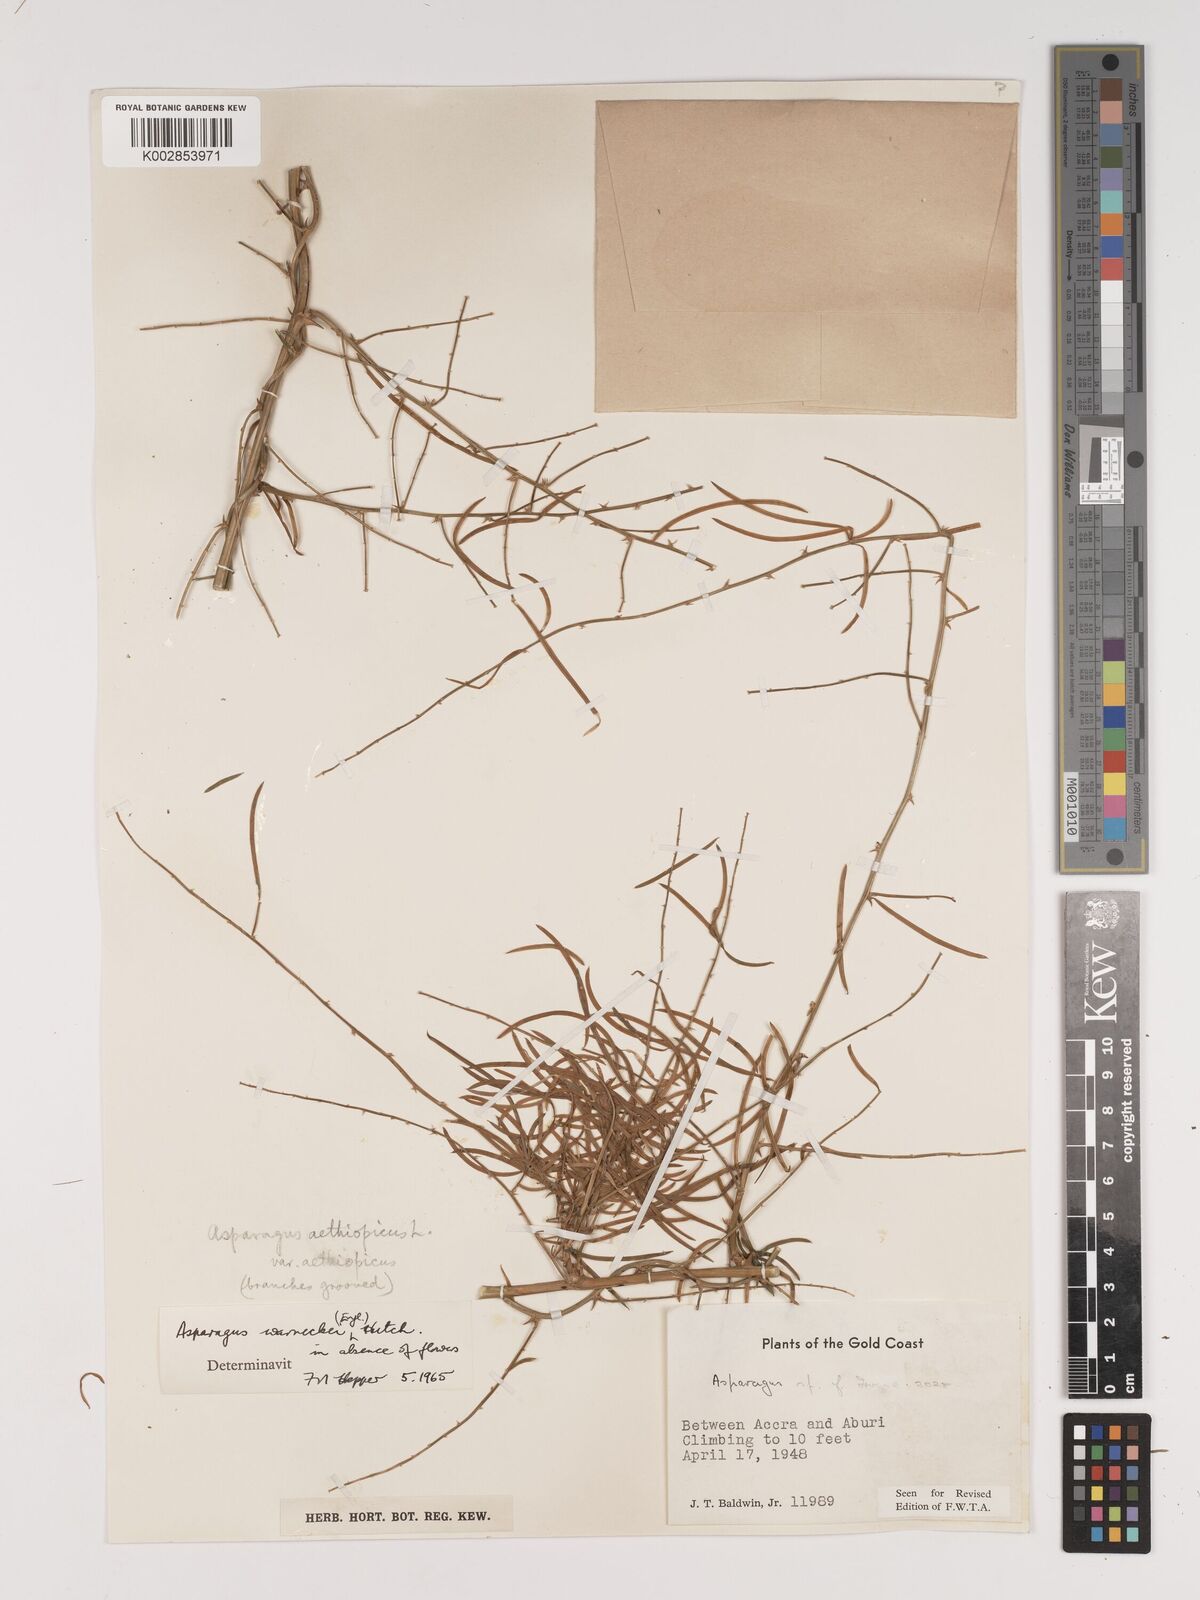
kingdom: Plantae
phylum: Tracheophyta
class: Liliopsida
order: Asparagales
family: Asparagaceae
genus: Asparagus
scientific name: Asparagus aethiopicus
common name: Sprenger's asparagus fern
